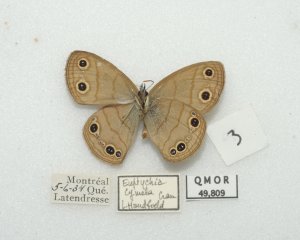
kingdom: Animalia
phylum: Arthropoda
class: Insecta
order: Lepidoptera
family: Nymphalidae
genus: Euptychia
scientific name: Euptychia cymela
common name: Little Wood Satyr
